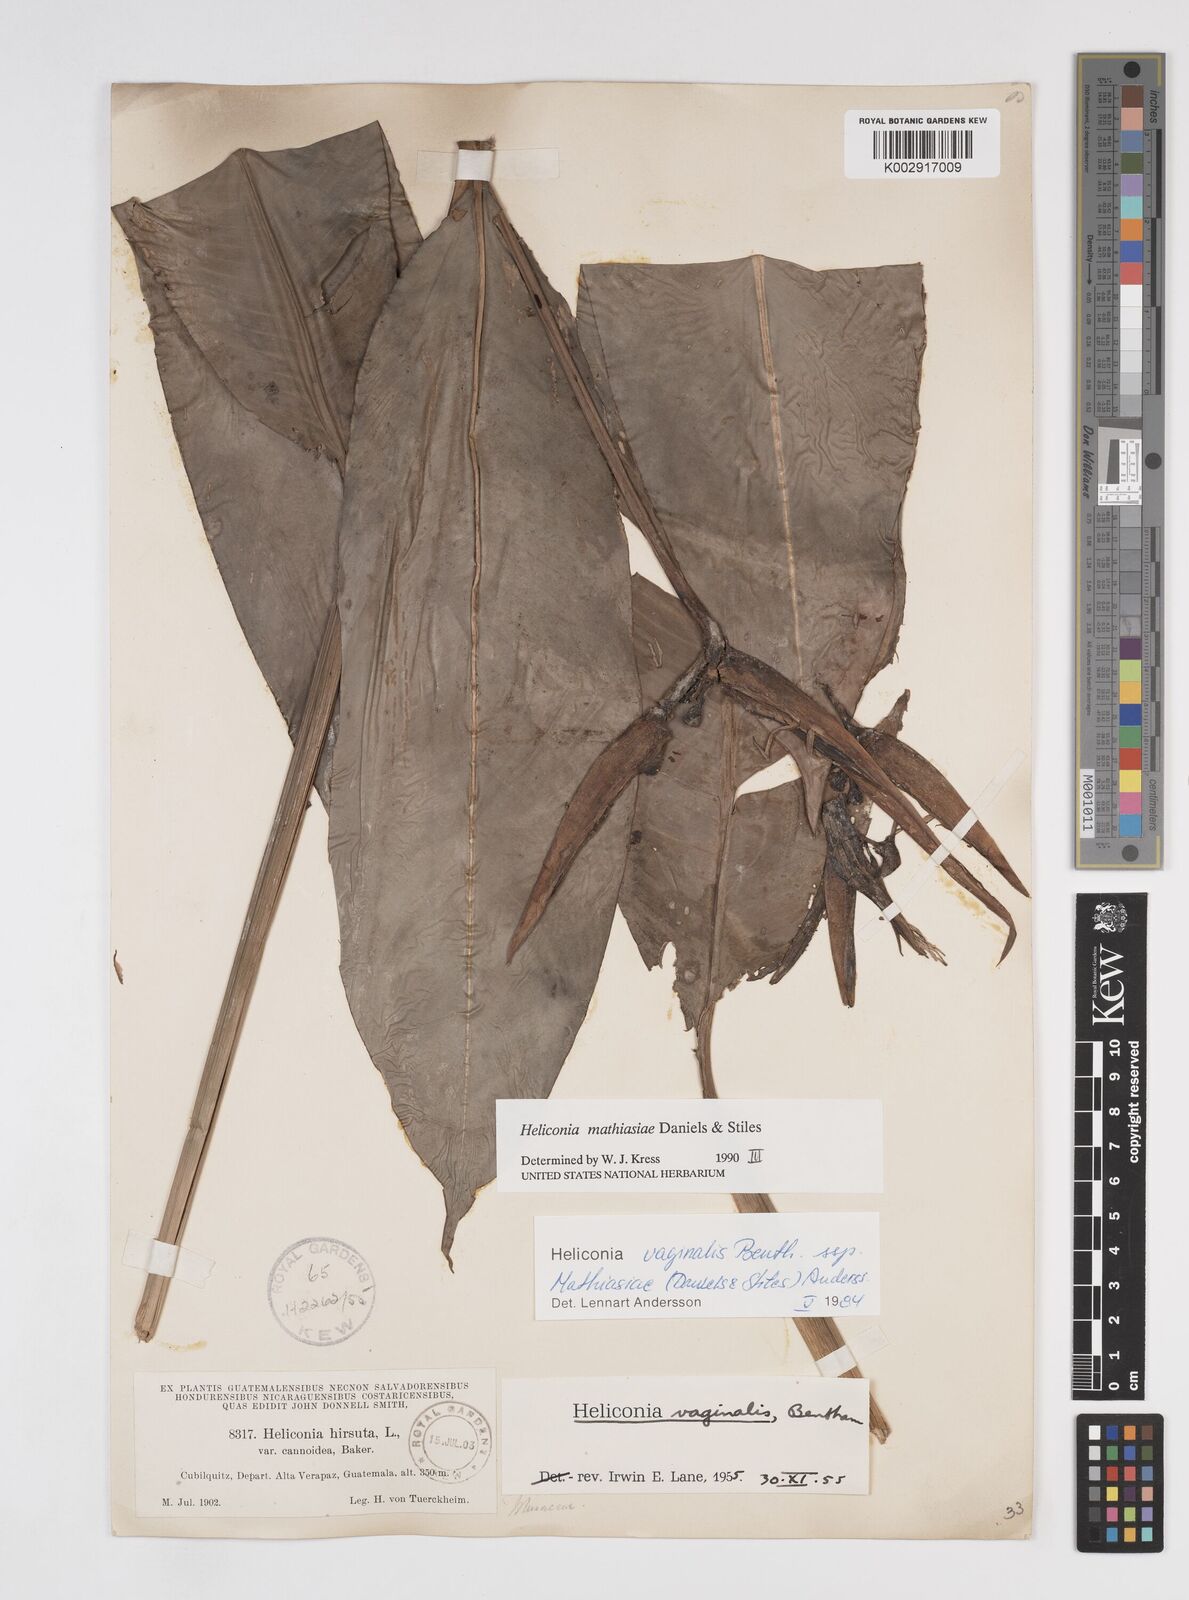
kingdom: Plantae
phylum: Tracheophyta
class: Liliopsida
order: Zingiberales
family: Heliconiaceae
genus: Heliconia
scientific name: Heliconia vaginalis
